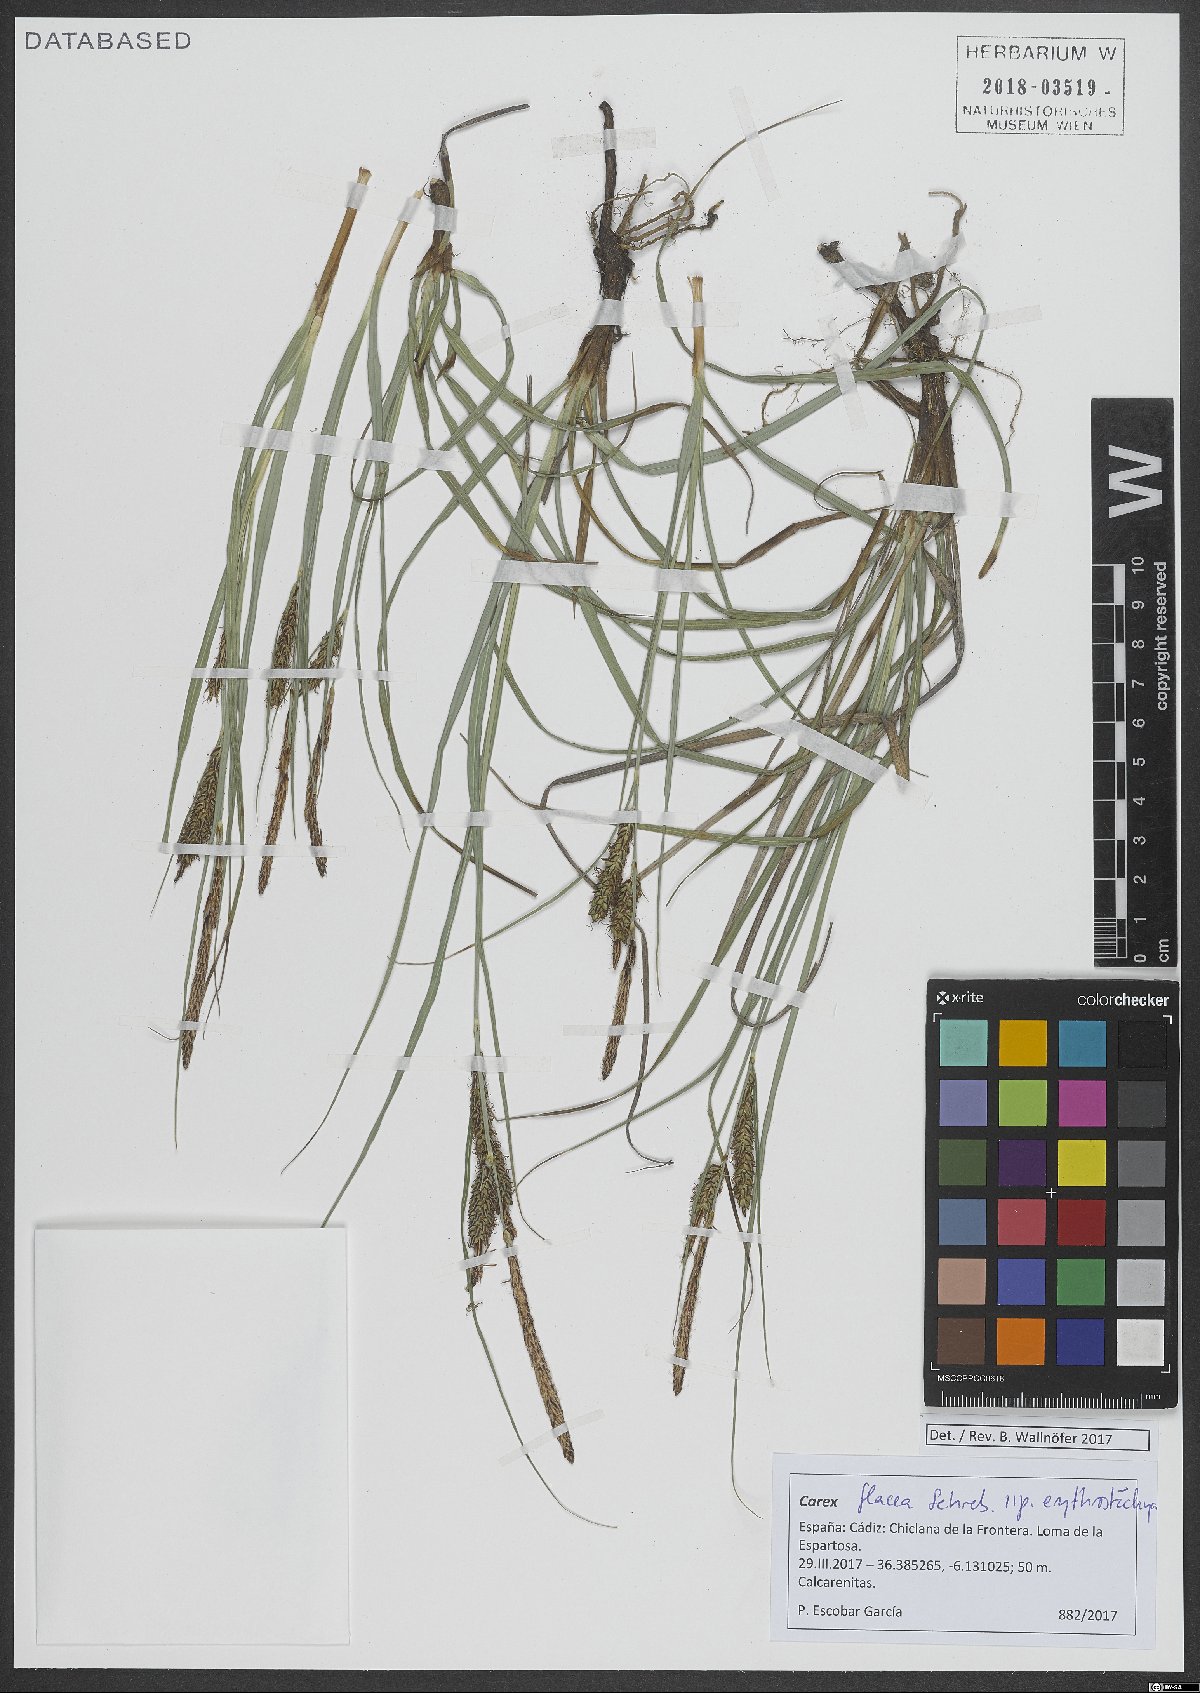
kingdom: Plantae
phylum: Tracheophyta
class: Liliopsida
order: Poales
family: Cyperaceae
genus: Carex
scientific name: Carex flacca
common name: Glaucous sedge
